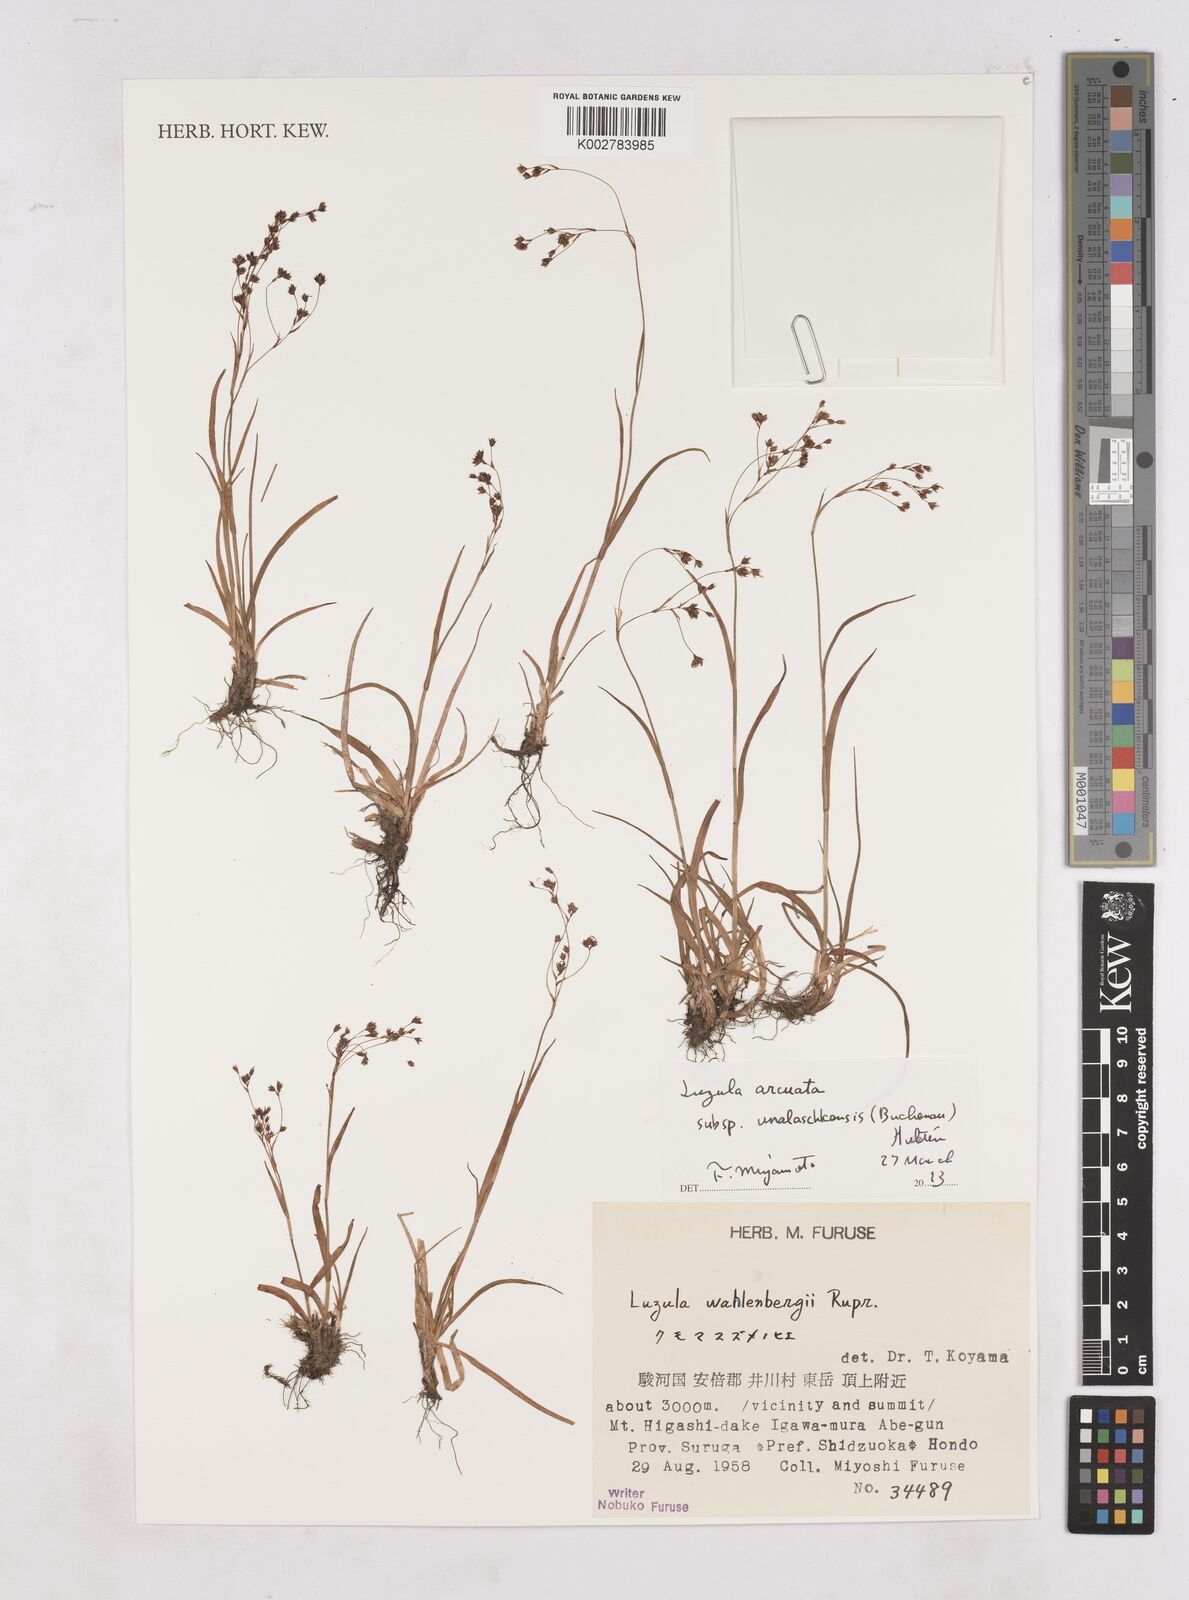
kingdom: Plantae
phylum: Tracheophyta
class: Liliopsida
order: Poales
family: Juncaceae
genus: Luzula
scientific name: Luzula arcuata
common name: Curved wood-rush
